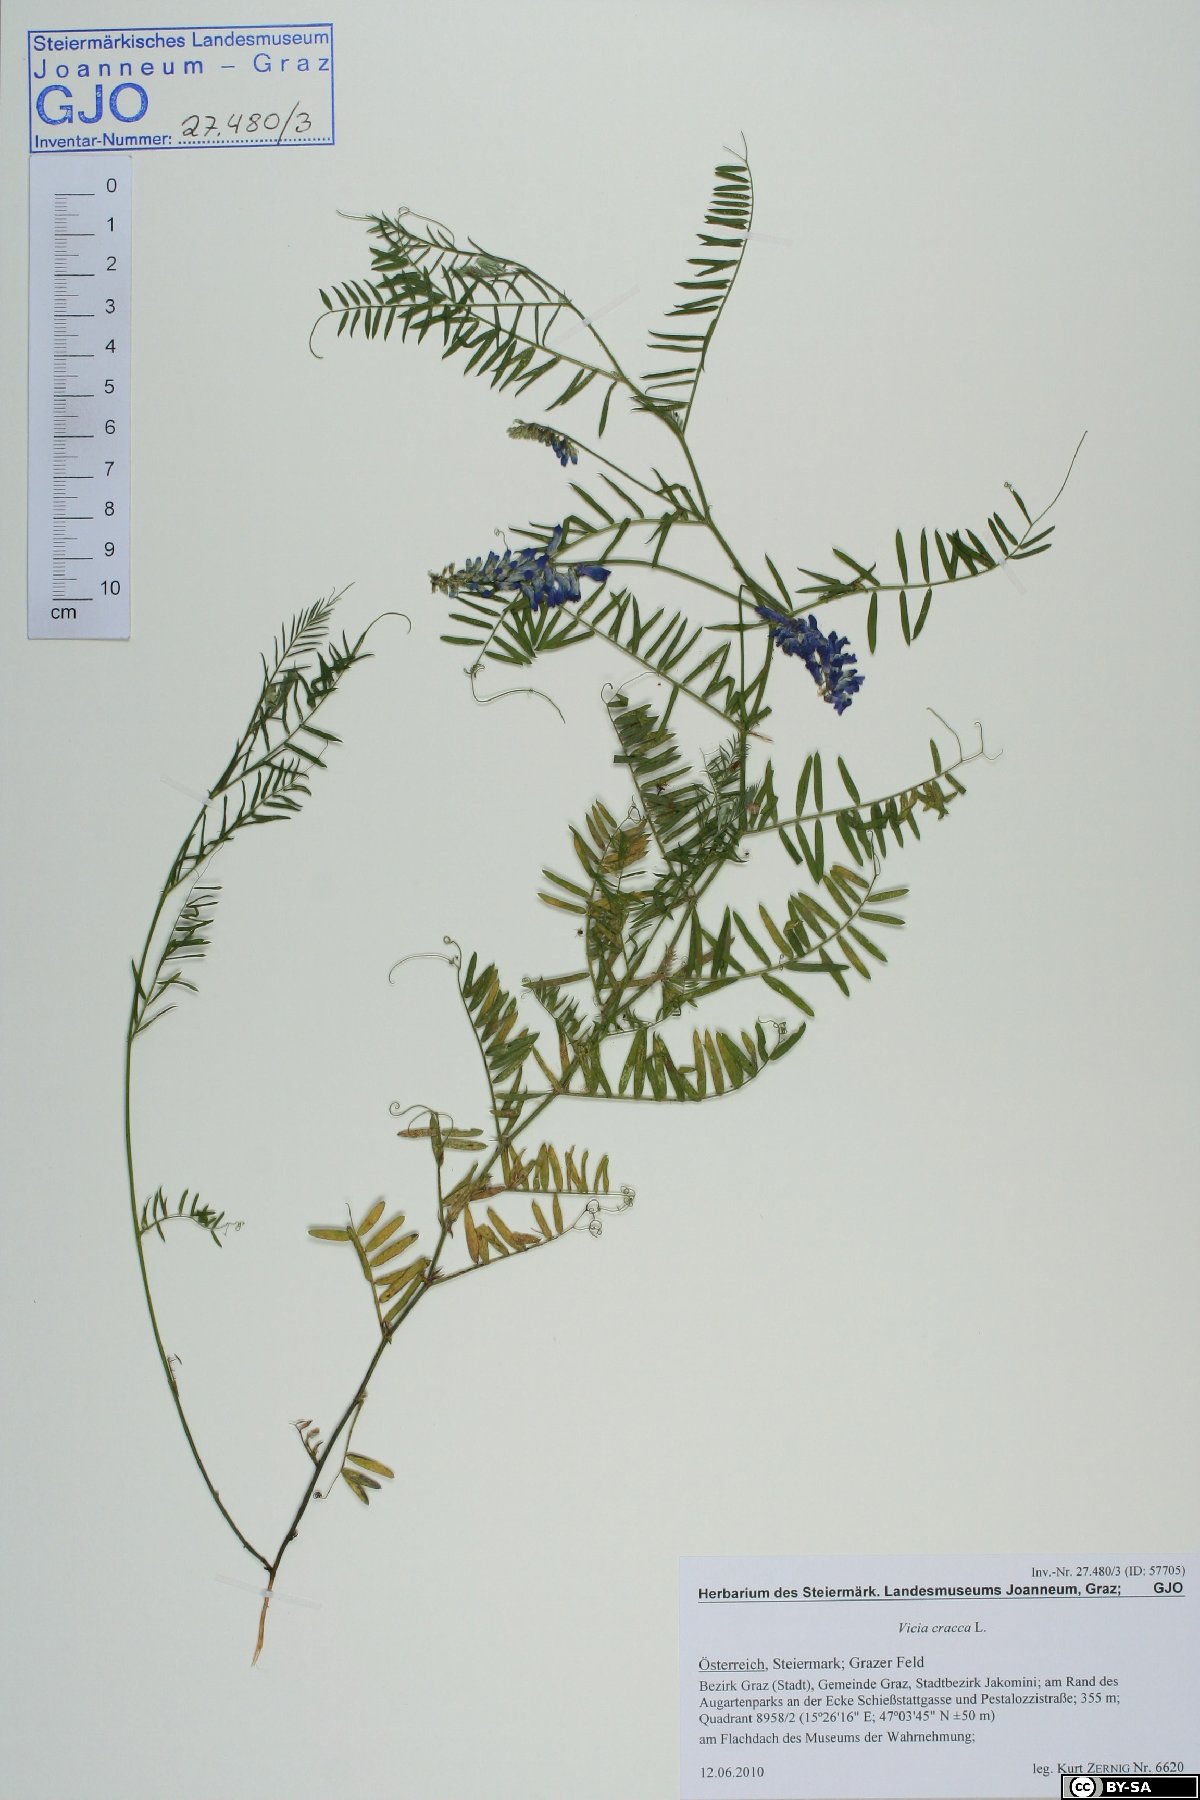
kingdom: Plantae
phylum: Tracheophyta
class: Magnoliopsida
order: Fabales
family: Fabaceae
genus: Vicia
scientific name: Vicia cracca
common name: Bird vetch
